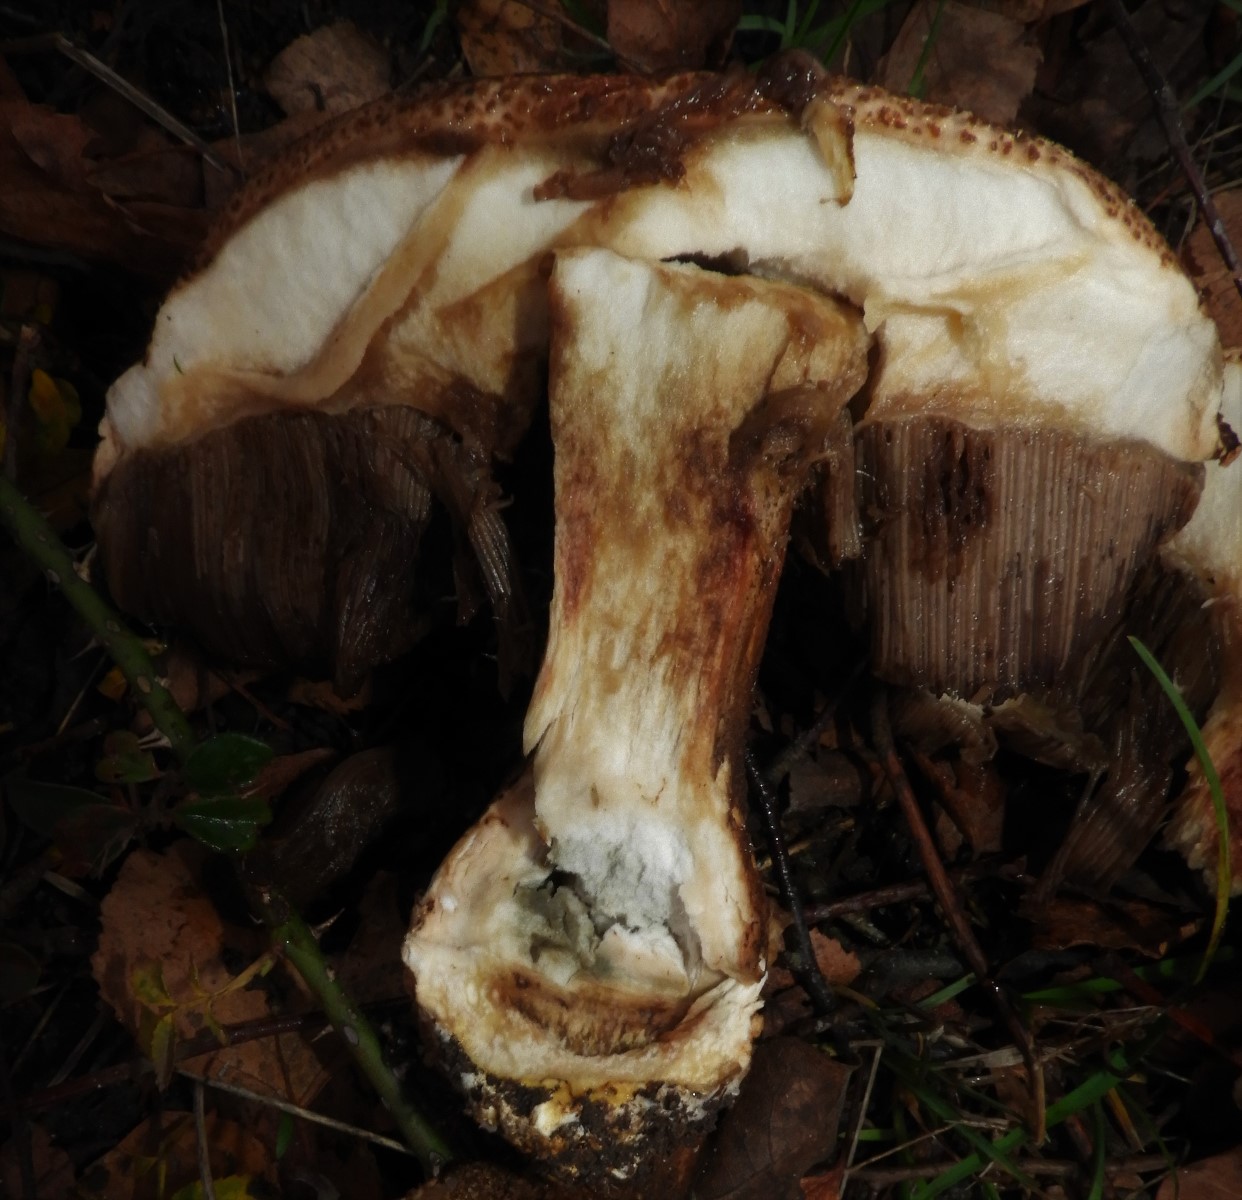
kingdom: Fungi
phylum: Basidiomycota
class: Agaricomycetes
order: Boletales
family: Boletaceae
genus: Leccinum
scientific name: Leccinum
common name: skælrørhat
